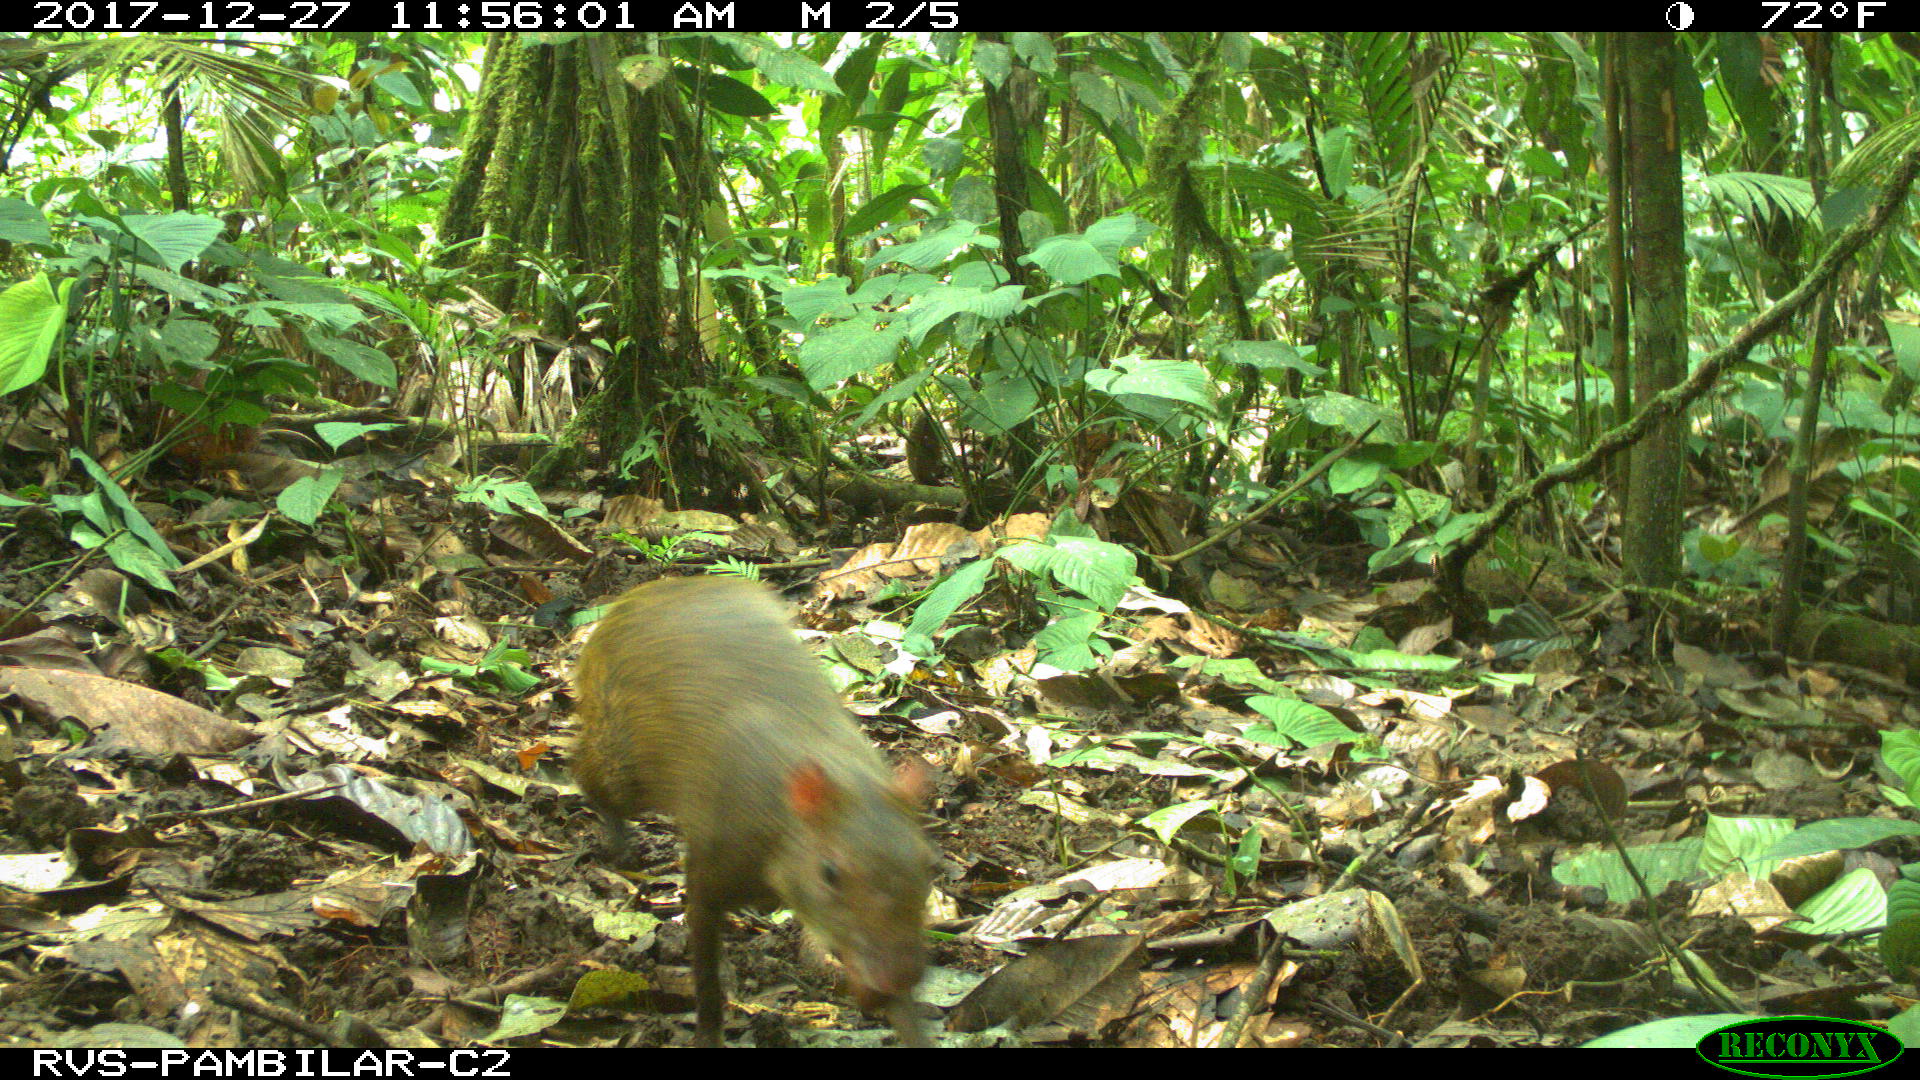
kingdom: Animalia
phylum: Chordata
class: Mammalia
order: Rodentia
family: Dasyproctidae
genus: Dasyprocta
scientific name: Dasyprocta punctata
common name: Central american agouti
